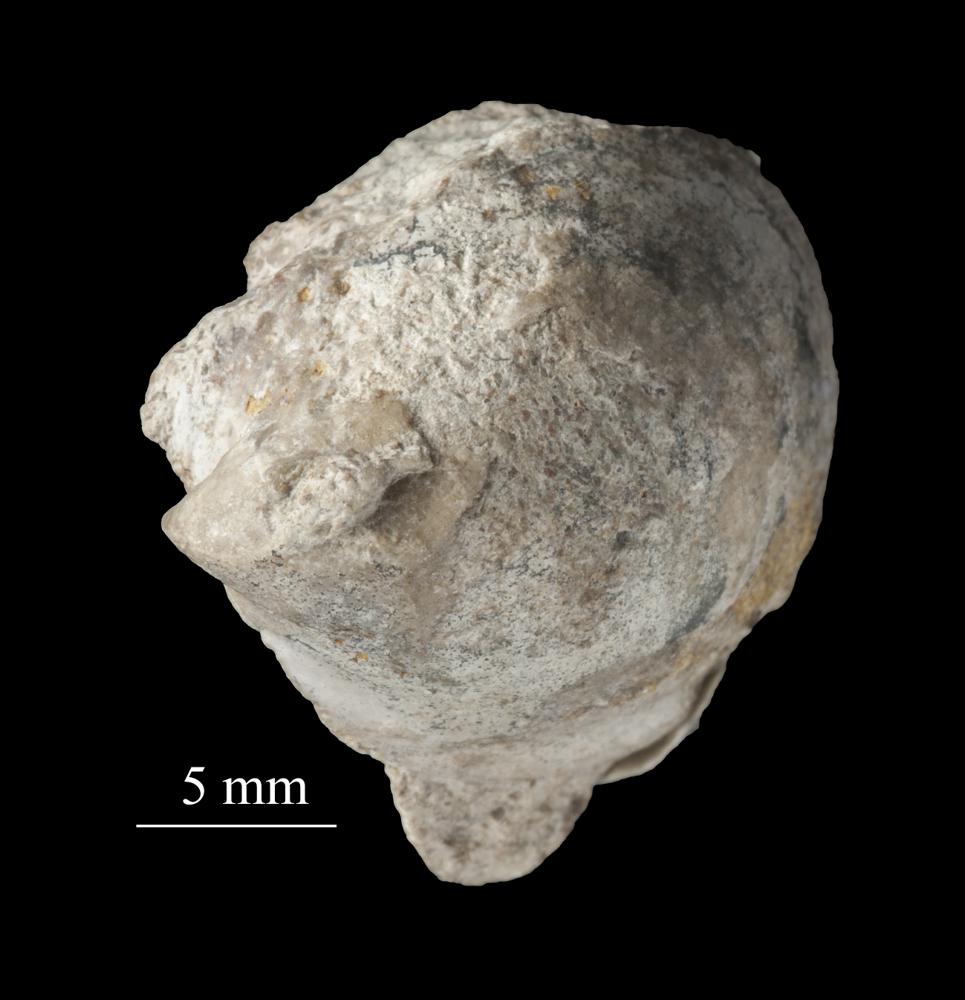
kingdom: Animalia
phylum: Mollusca
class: Gastropoda
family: Archinacellidae
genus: Archinacella
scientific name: Archinacella rostrata
